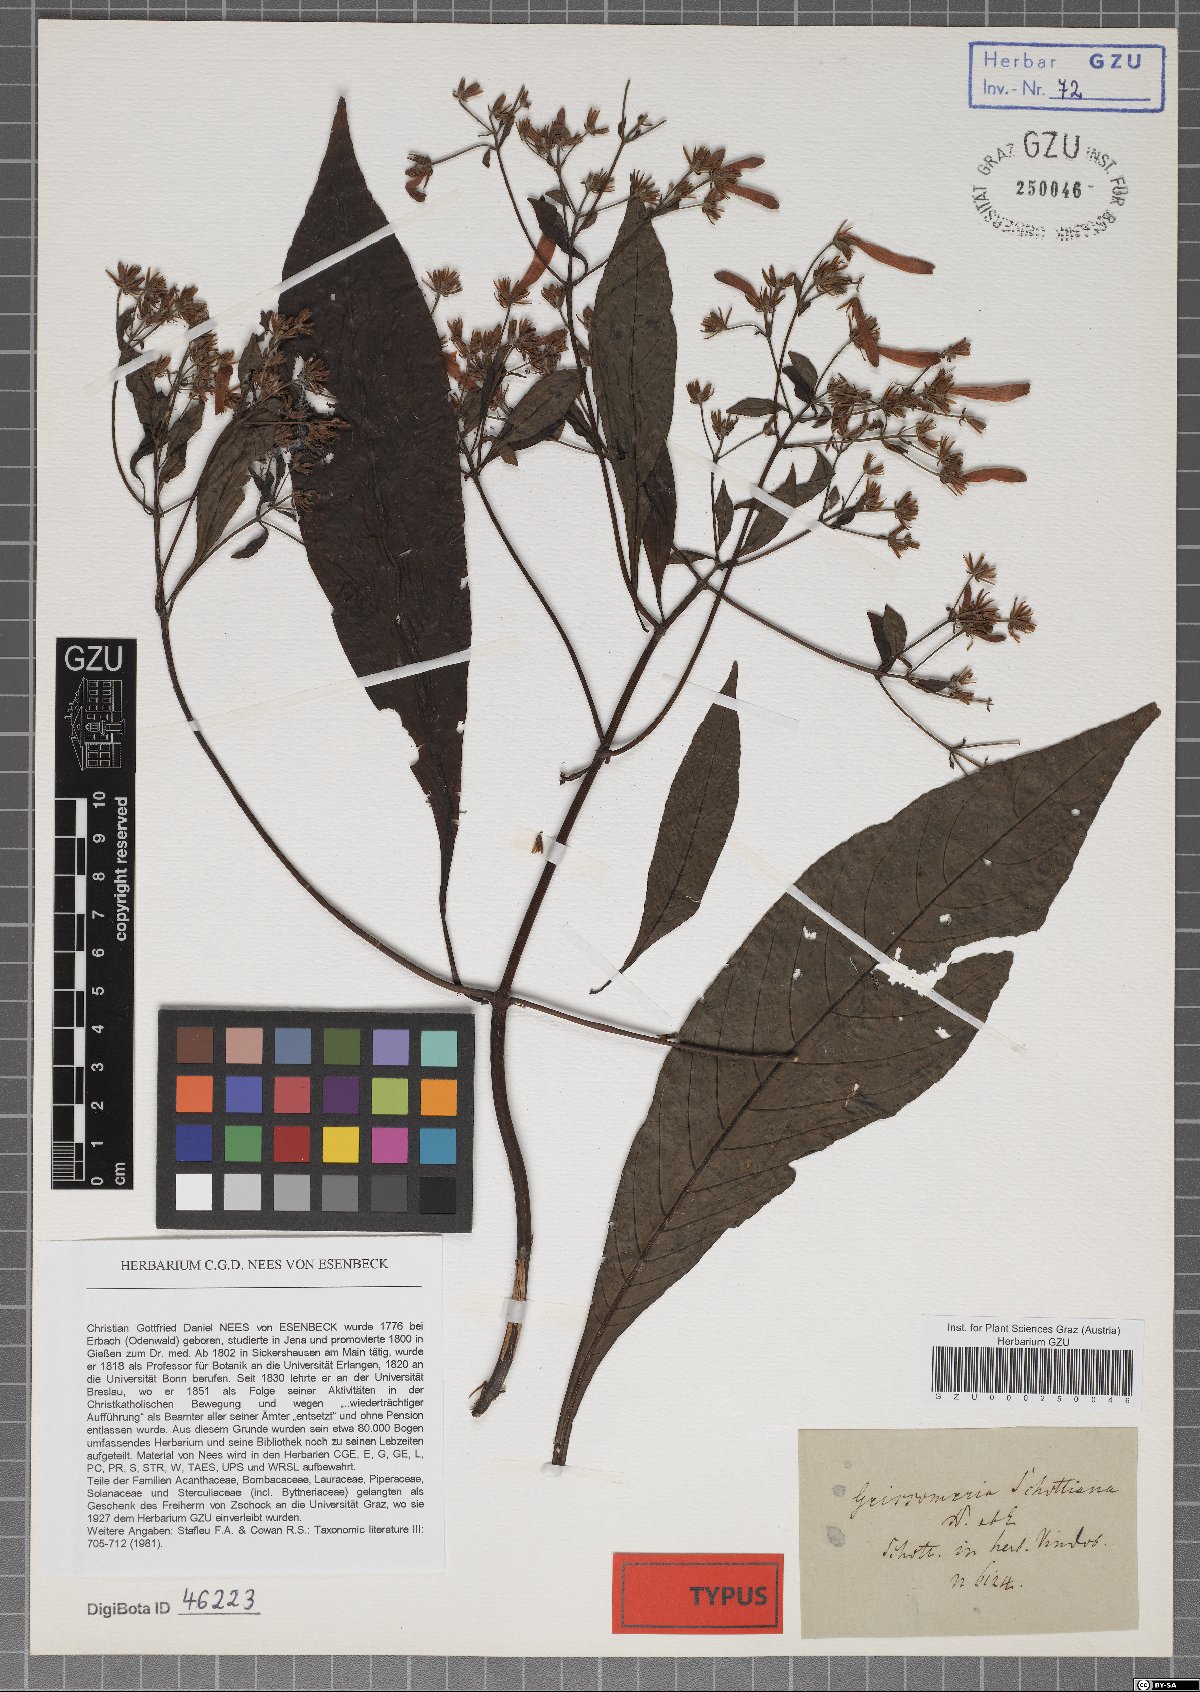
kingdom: Plantae
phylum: Tracheophyta
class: Magnoliopsida
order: Lamiales
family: Acanthaceae
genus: Aphelandra
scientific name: Aphelandra schottiana
